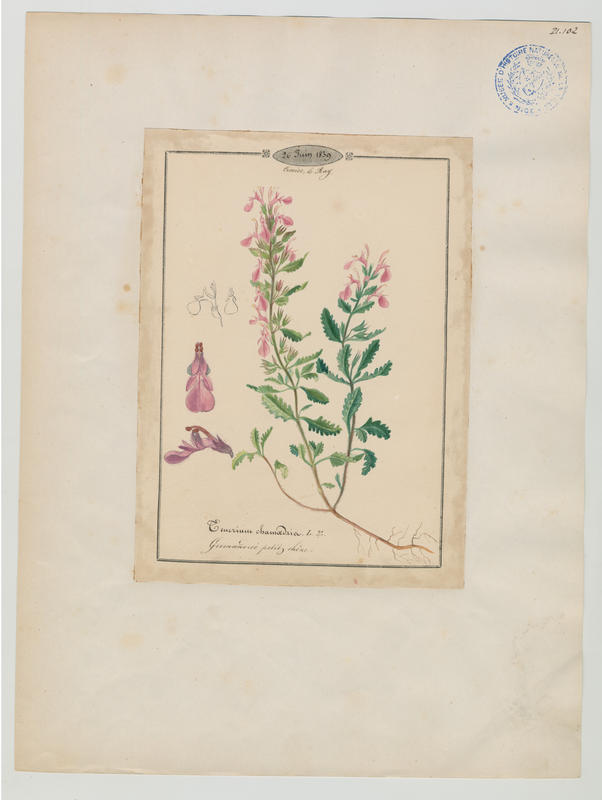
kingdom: Plantae
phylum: Tracheophyta
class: Magnoliopsida
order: Lamiales
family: Lamiaceae
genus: Teucrium
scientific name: Teucrium chamaedrys
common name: Wall germander
